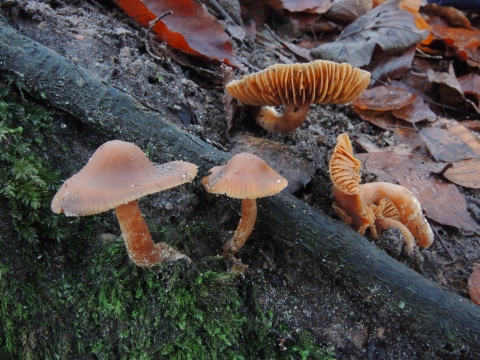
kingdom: Fungi
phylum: Basidiomycota
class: Agaricomycetes
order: Agaricales
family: Cortinariaceae
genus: Cortinarius
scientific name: Cortinarius
